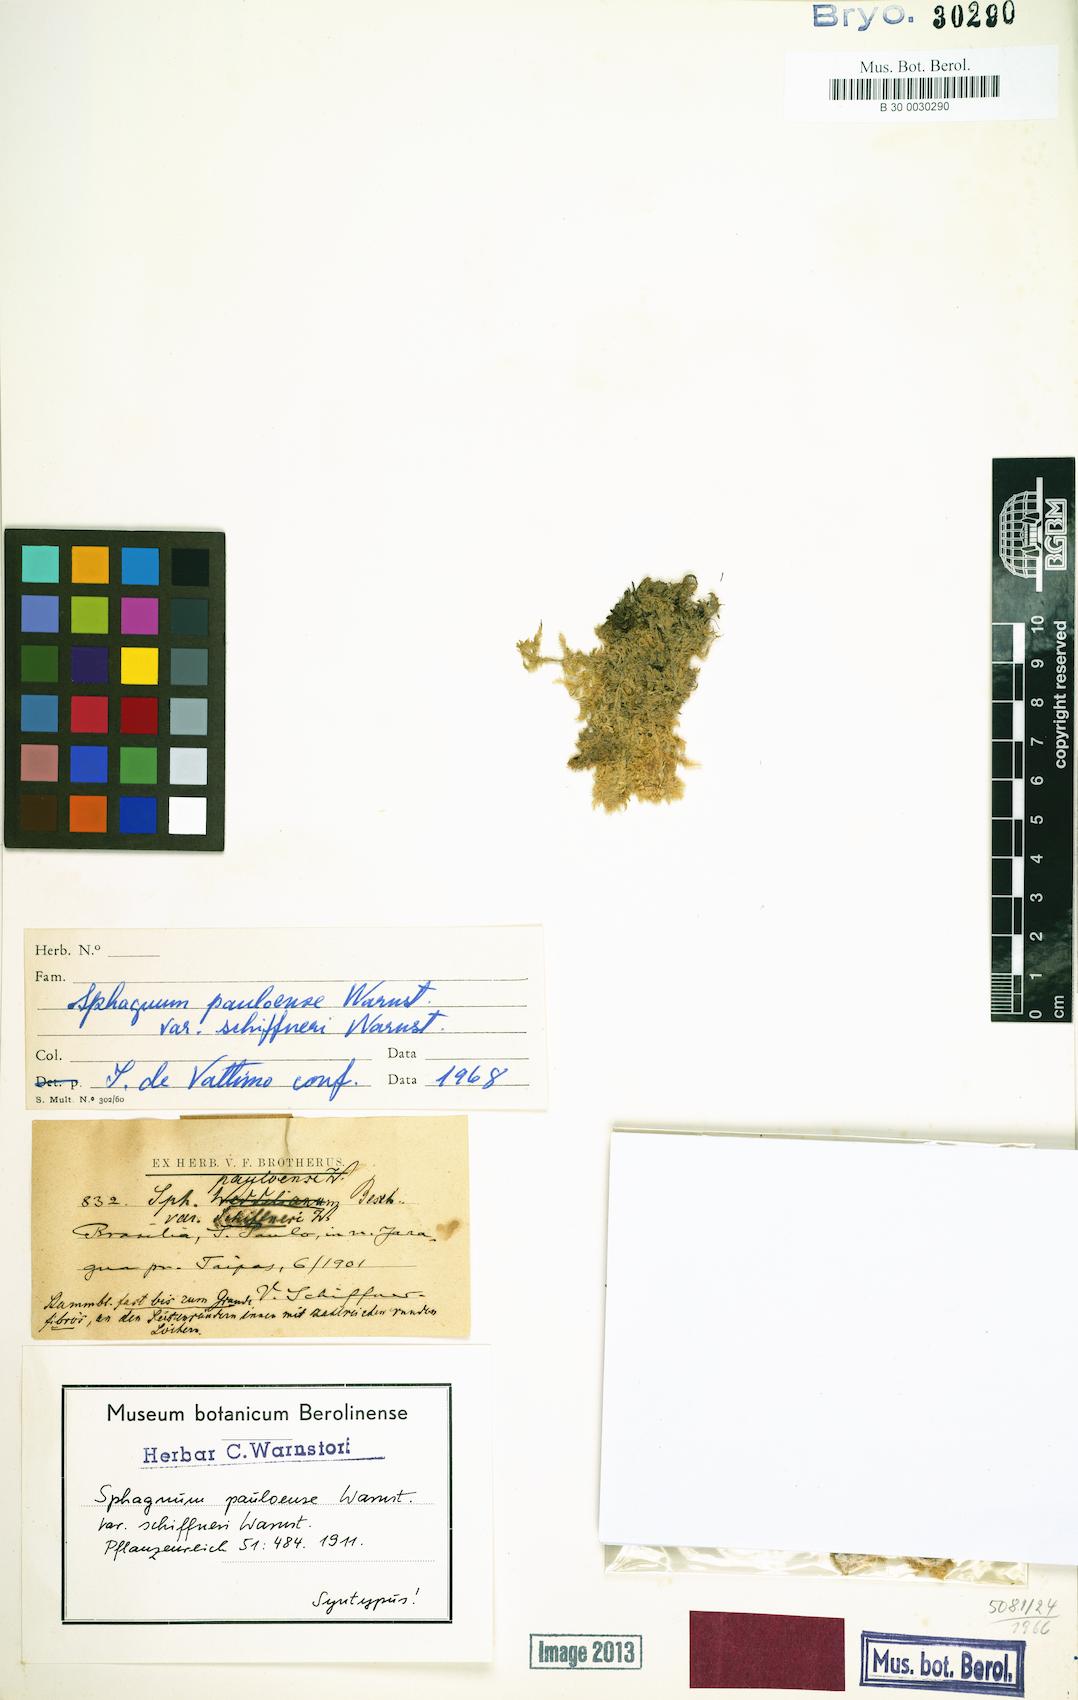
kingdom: Plantae
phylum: Bryophyta
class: Sphagnopsida
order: Sphagnales
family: Sphagnaceae
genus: Sphagnum
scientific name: Sphagnum perichaetiale
